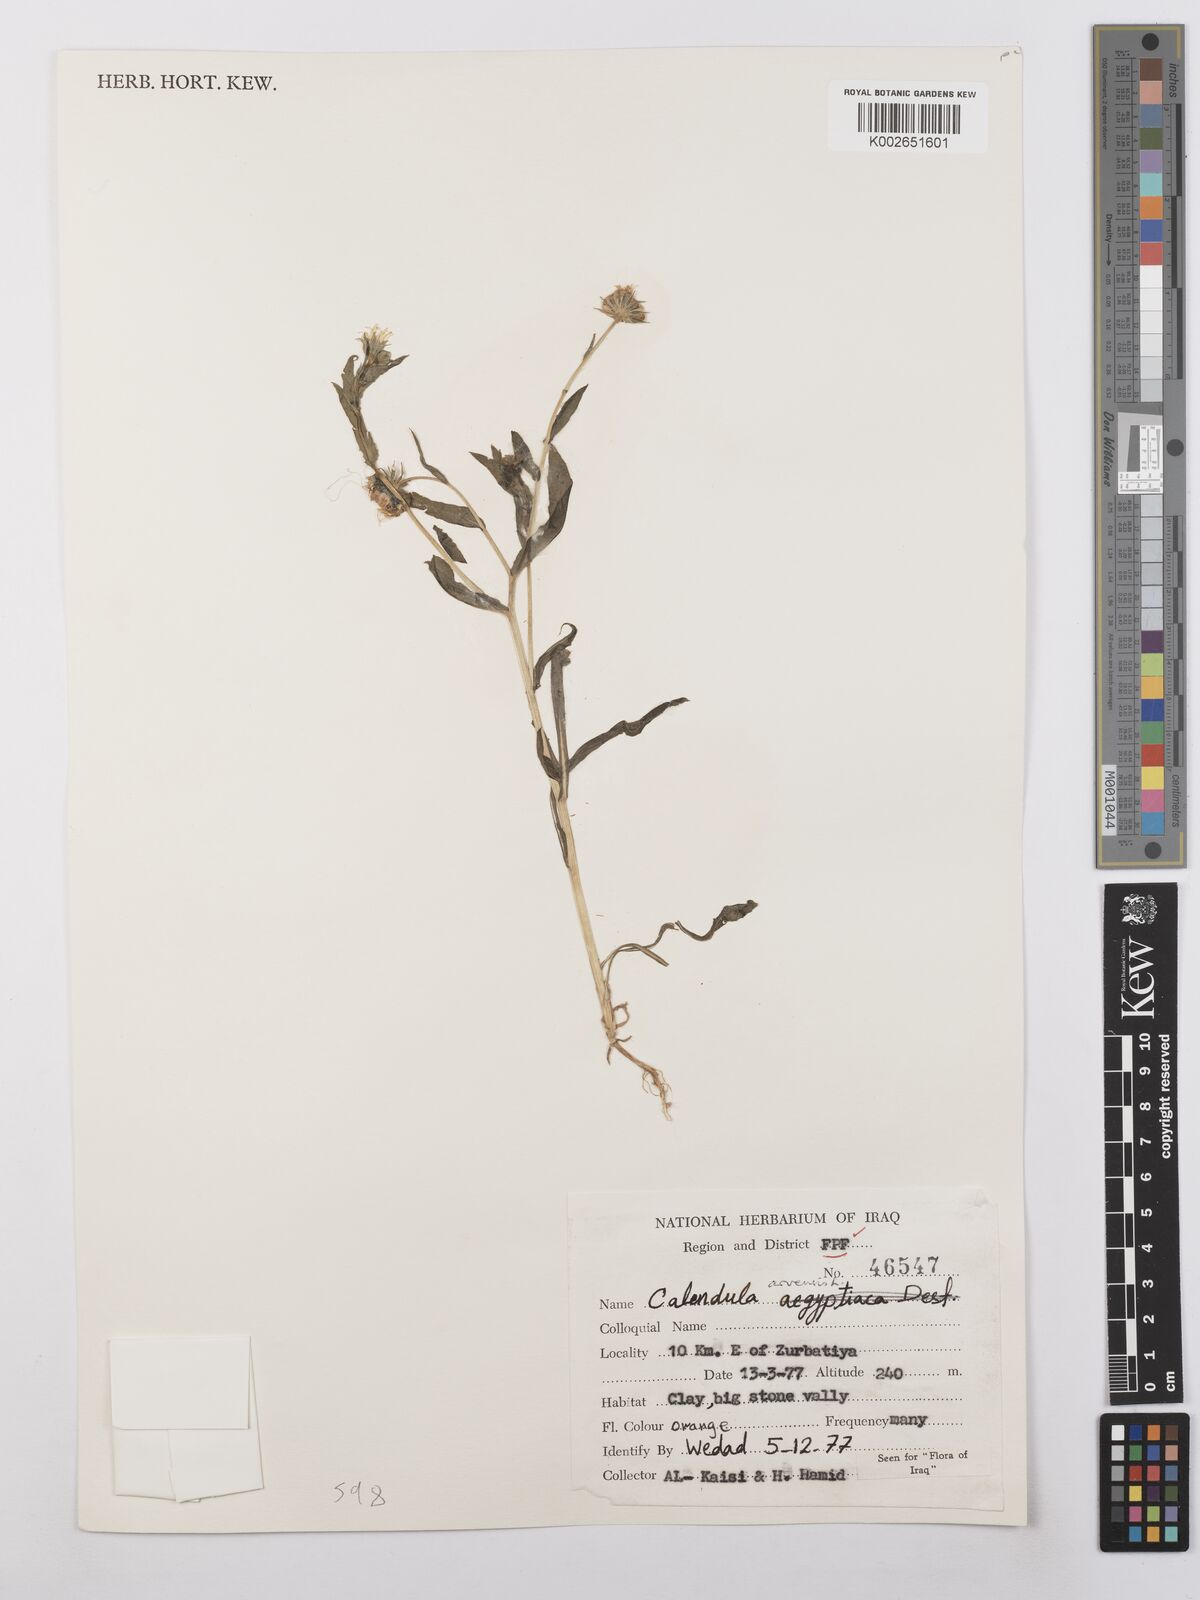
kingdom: Plantae
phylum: Tracheophyta
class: Magnoliopsida
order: Asterales
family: Asteraceae
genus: Calendula
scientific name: Calendula arvensis
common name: Field marigold
